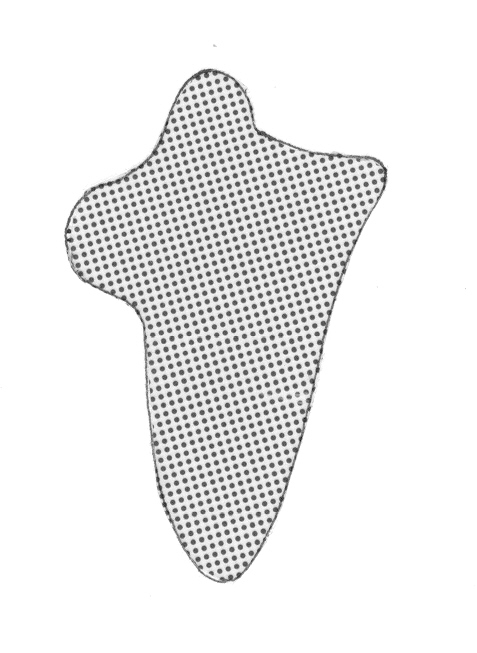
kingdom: Animalia
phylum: Chordata
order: Perciformes
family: Serranidae
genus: Odontanthias
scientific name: Odontanthias chrysostictus
